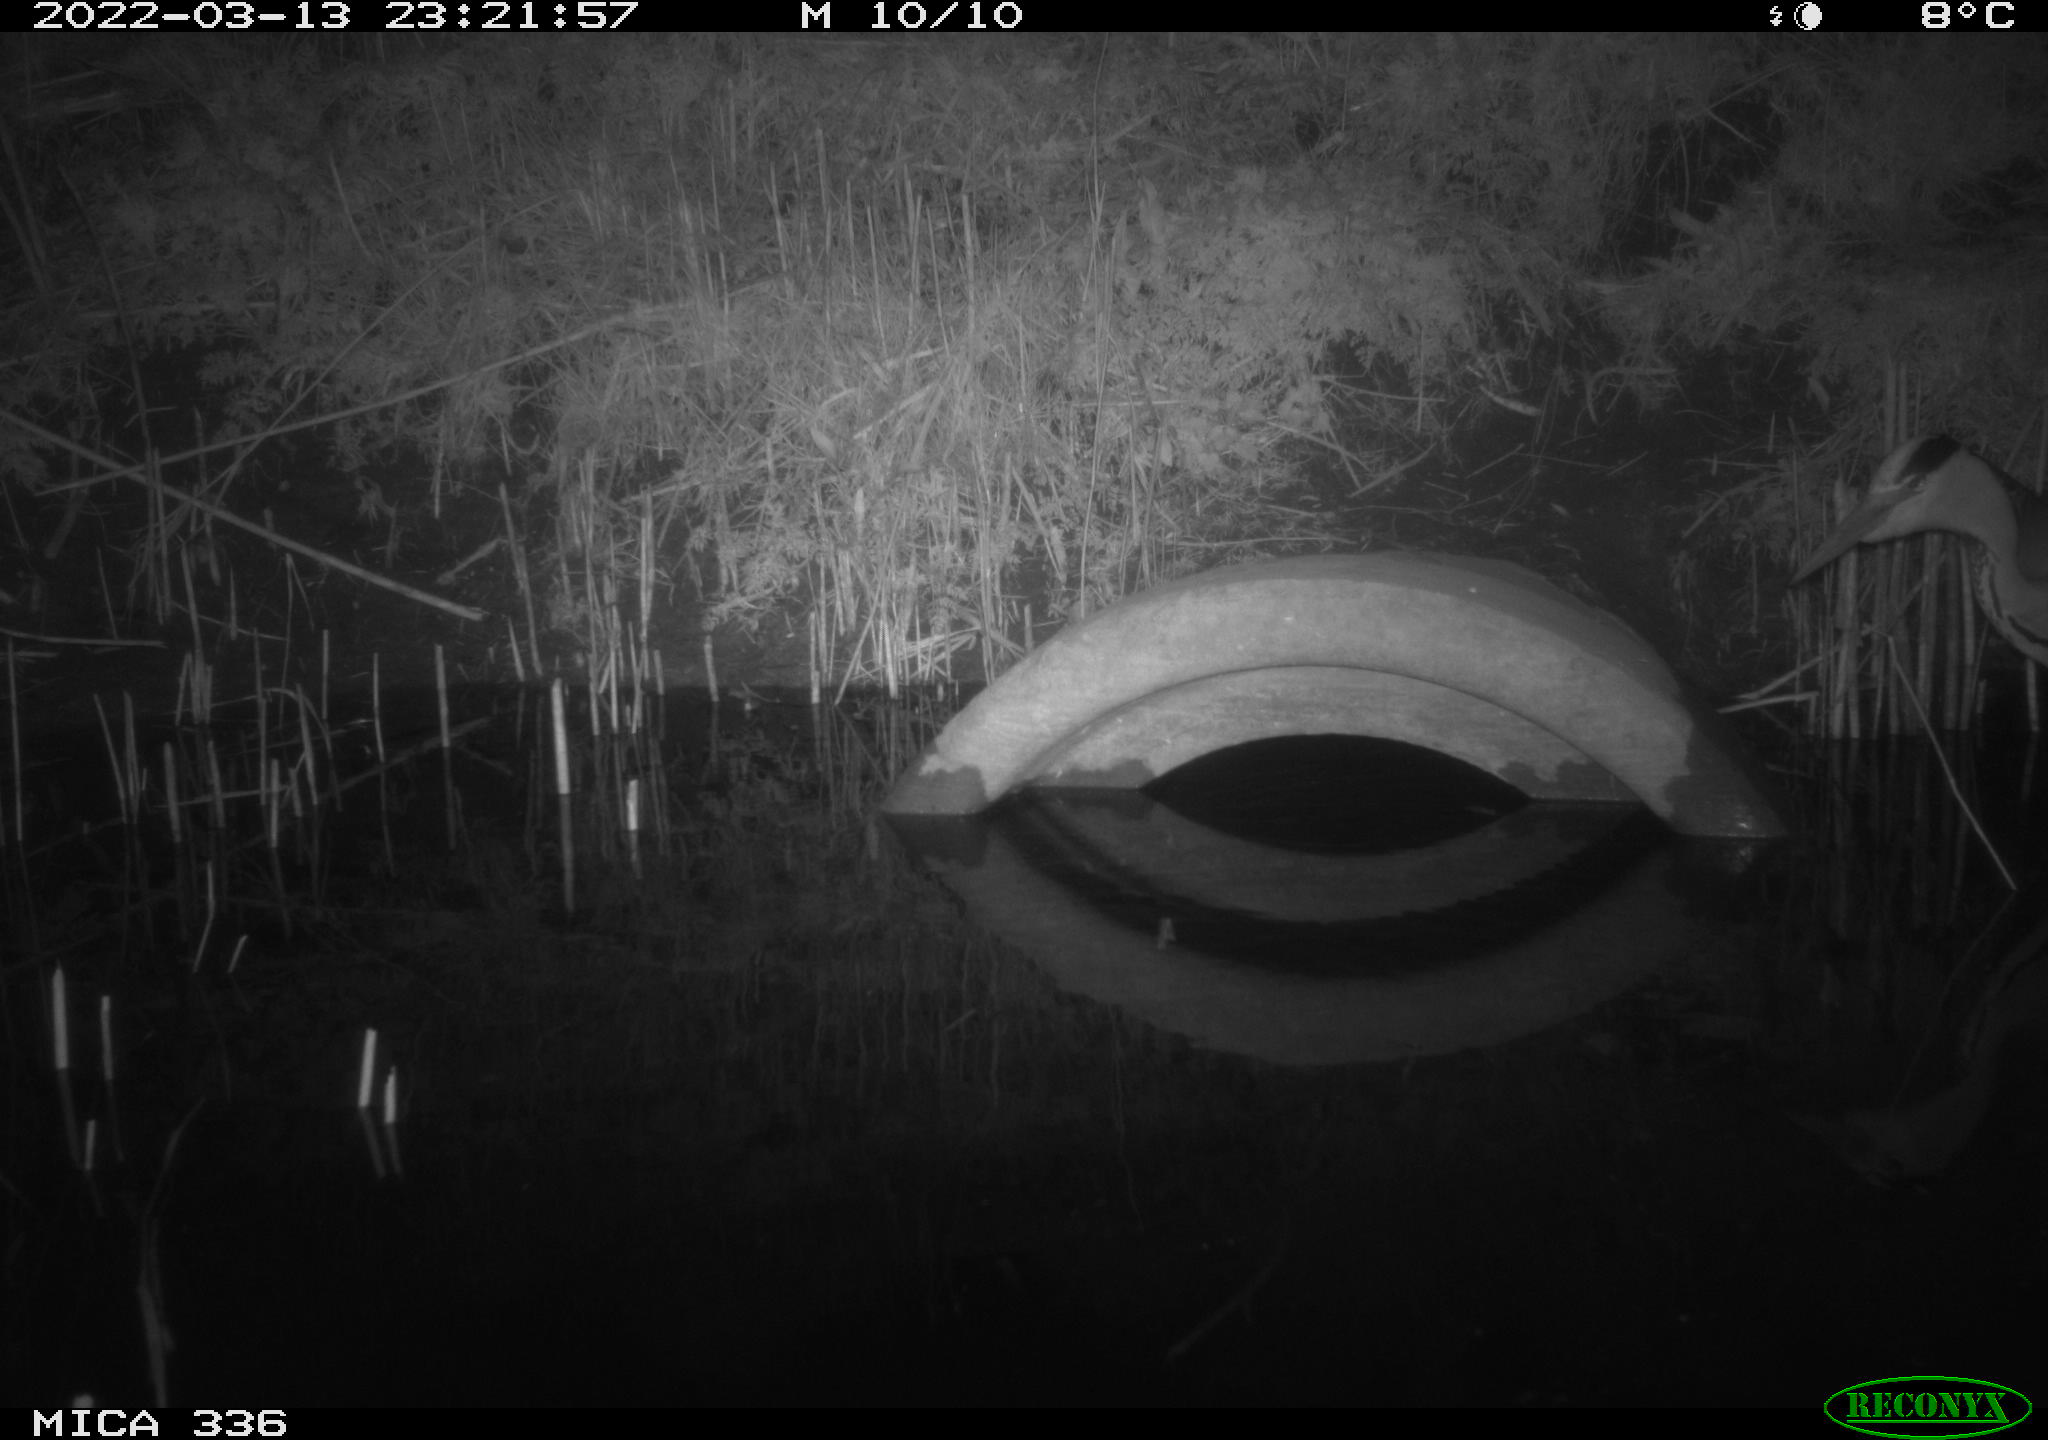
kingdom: Animalia
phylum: Chordata
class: Aves
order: Pelecaniformes
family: Ardeidae
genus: Ardea
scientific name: Ardea cinerea
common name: Grey heron
